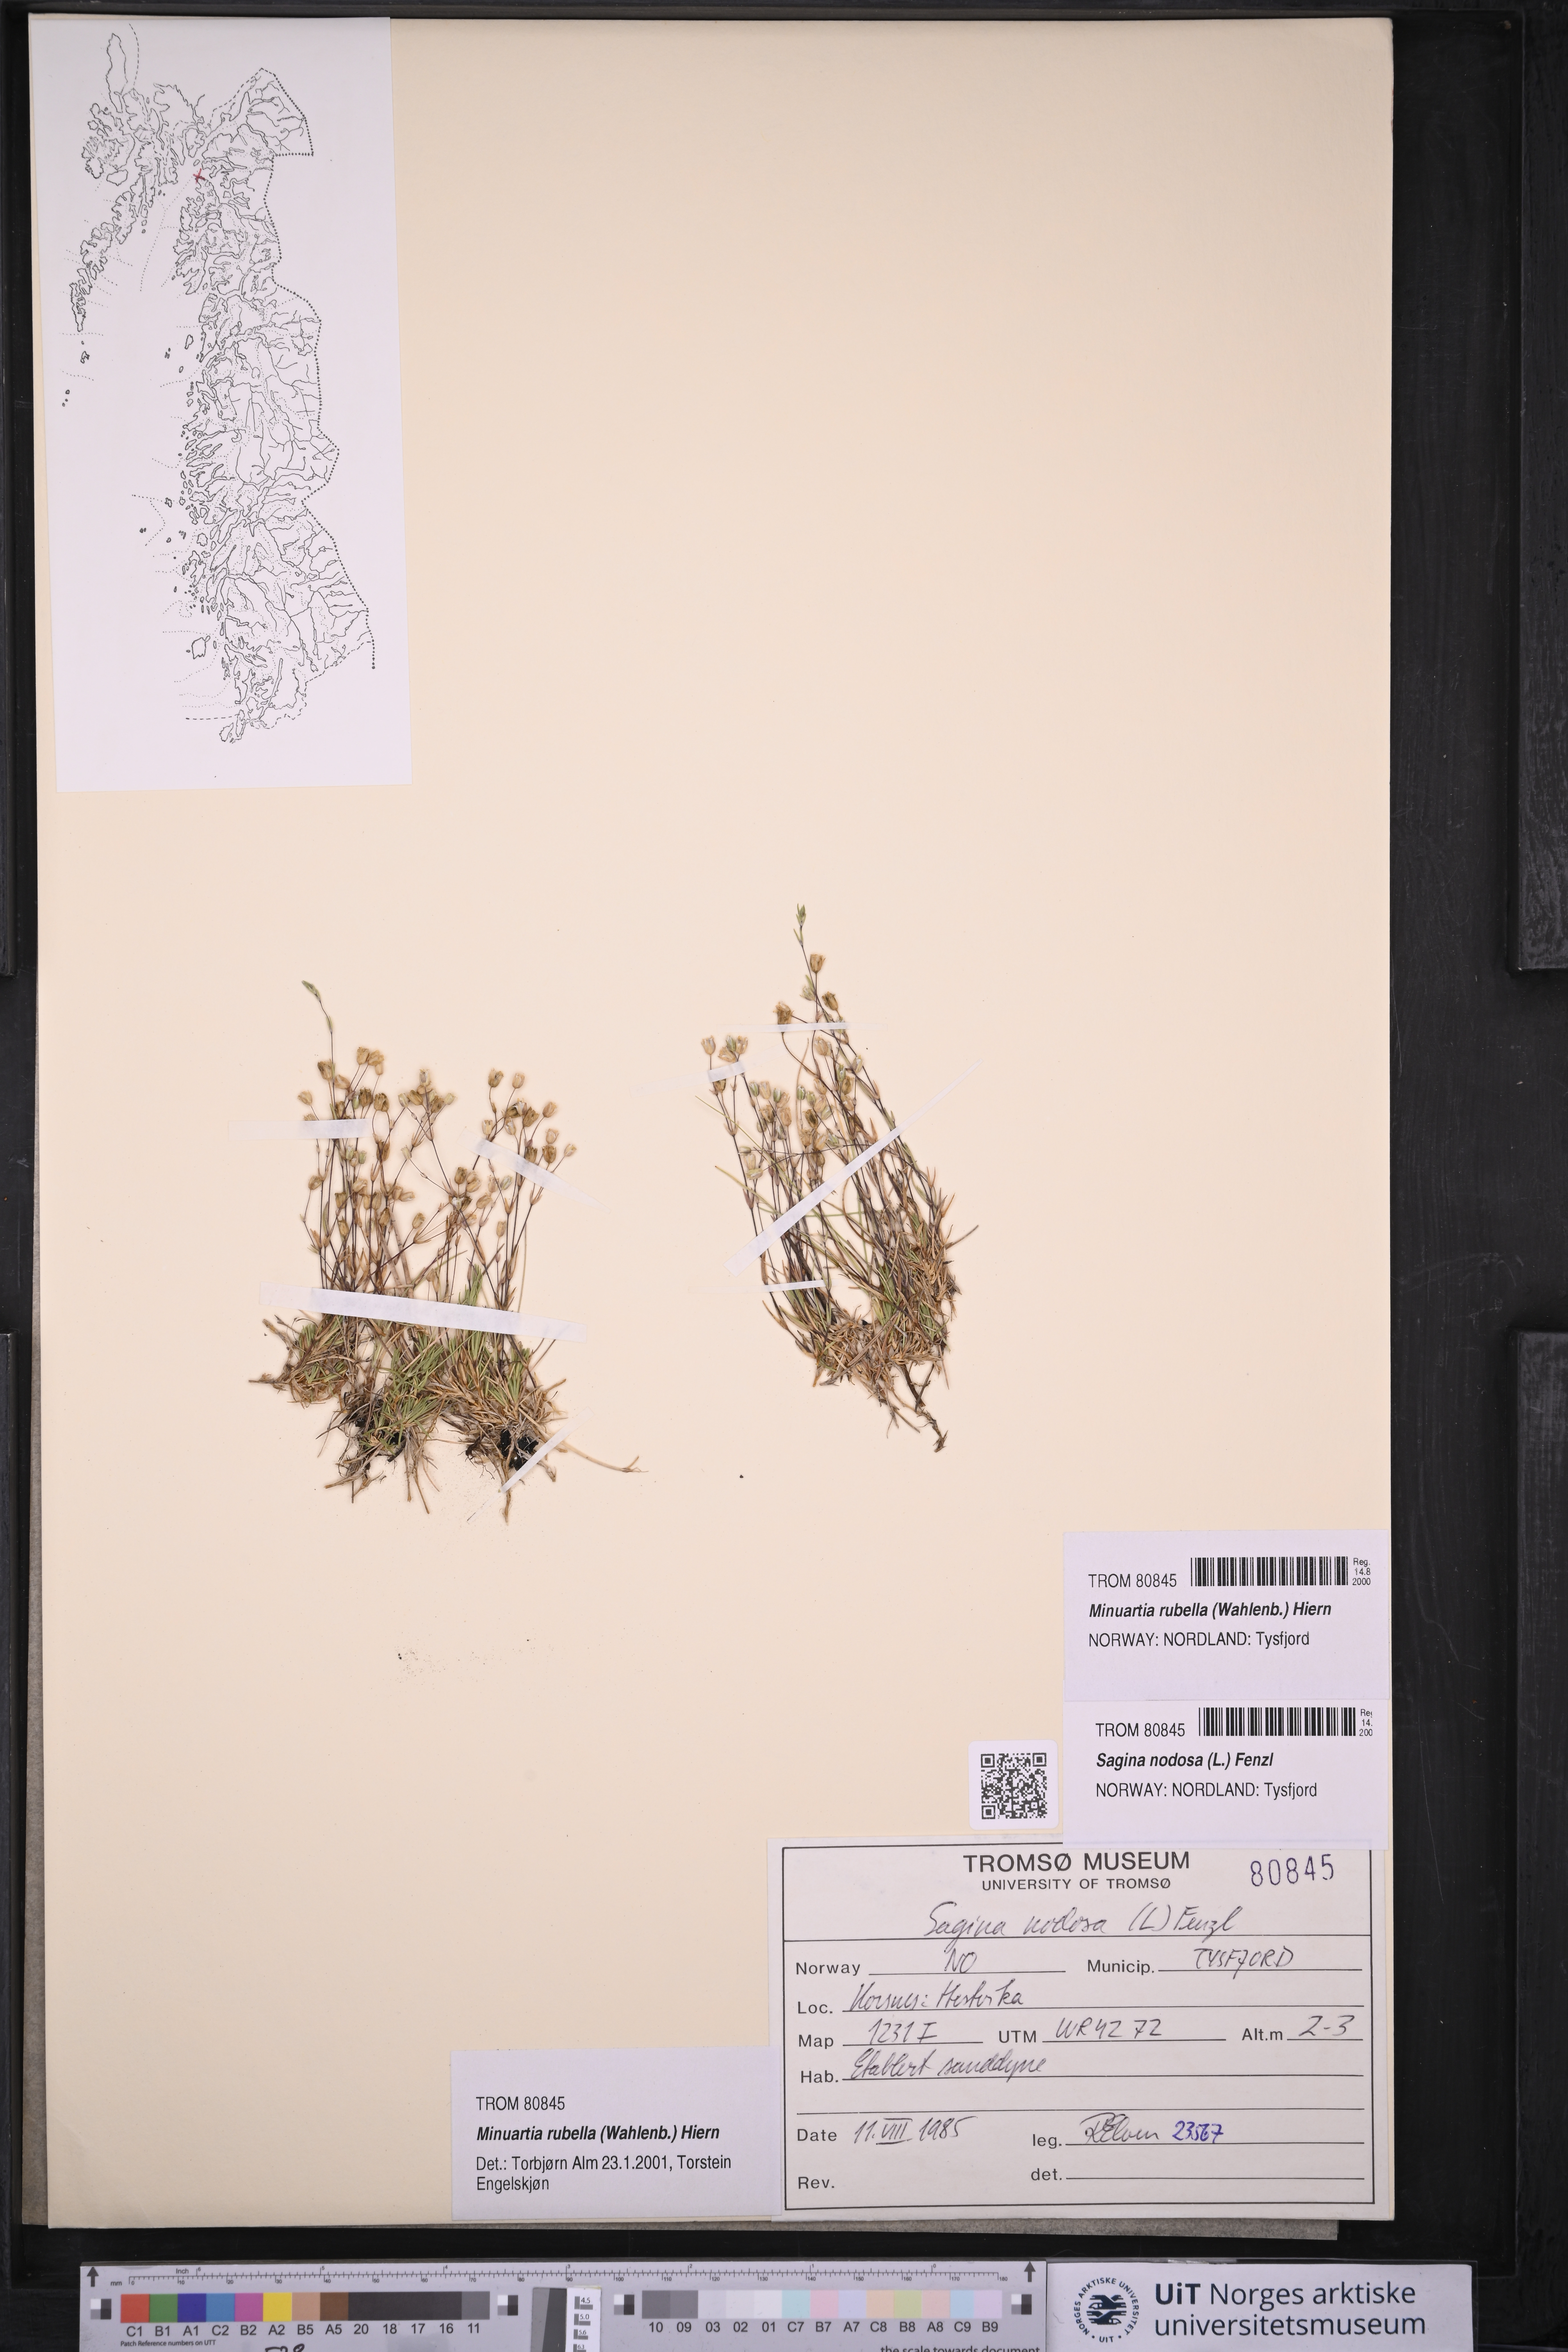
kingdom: Plantae
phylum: Tracheophyta
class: Magnoliopsida
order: Caryophyllales
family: Caryophyllaceae
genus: Sabulina
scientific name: Sabulina rubella
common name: Beautiful sandwort
